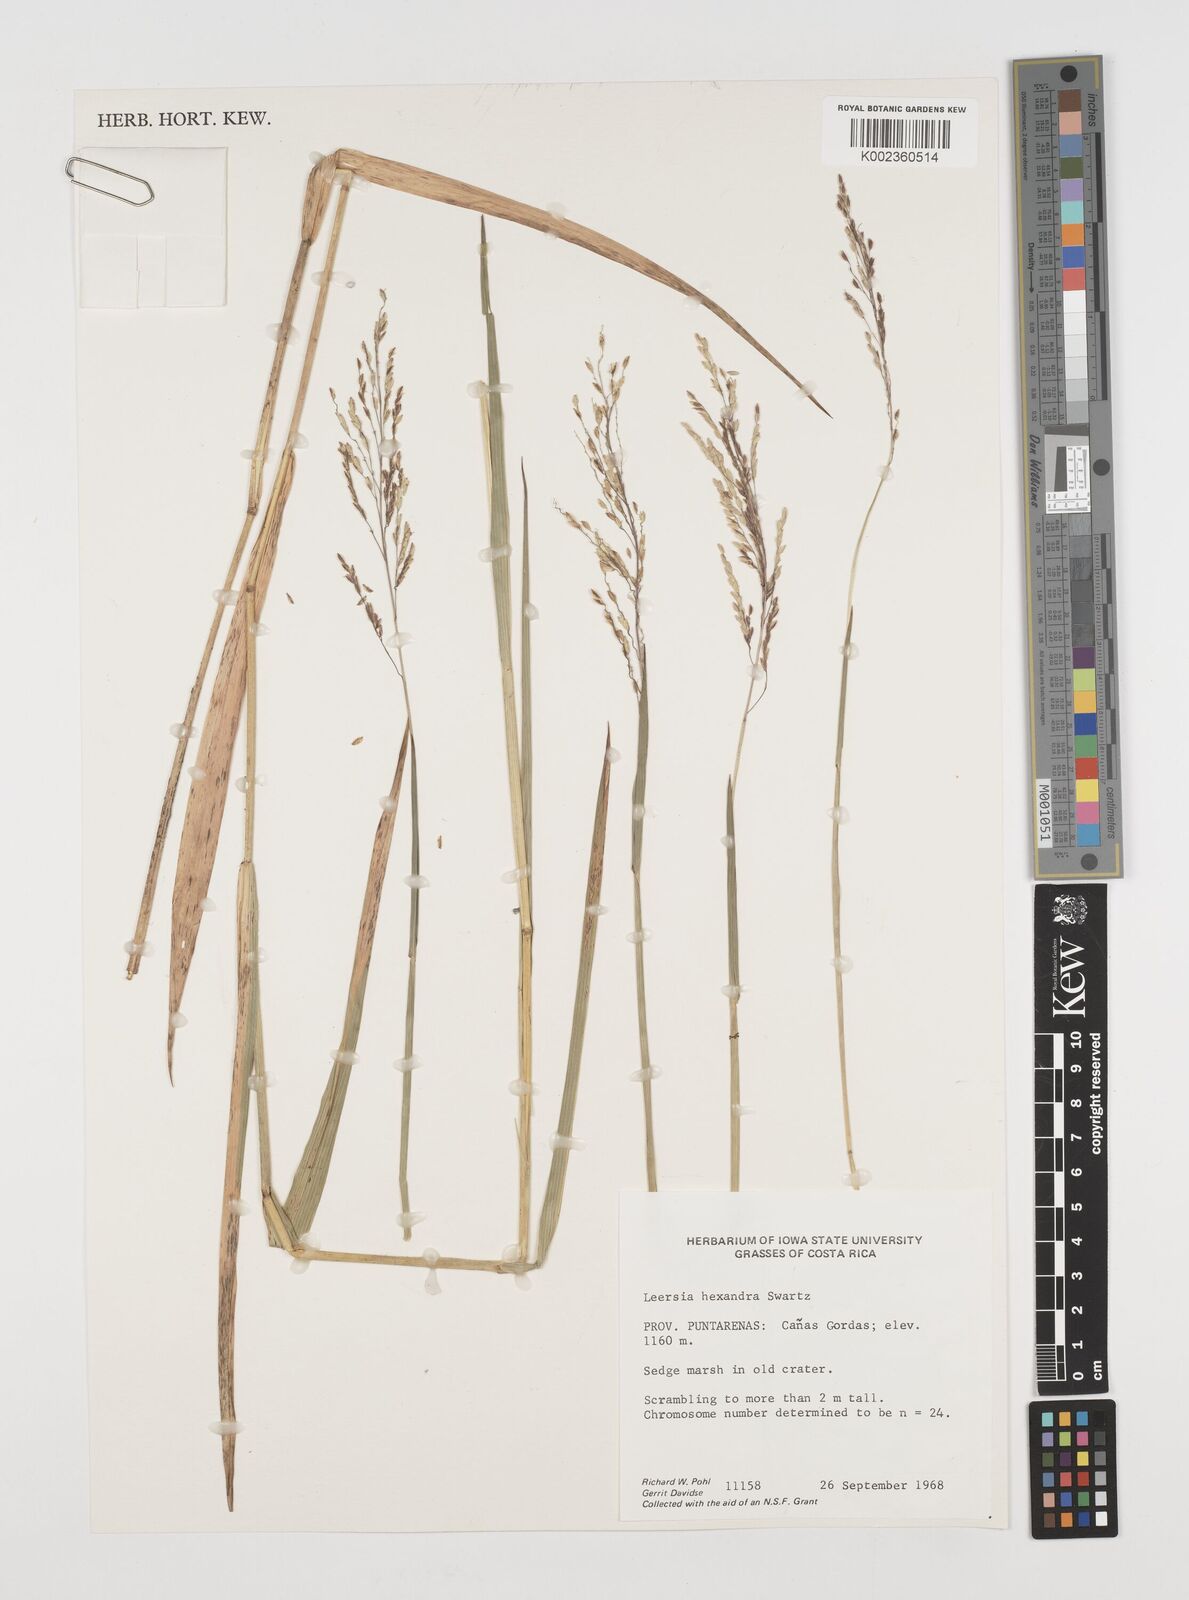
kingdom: Plantae
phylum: Tracheophyta
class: Liliopsida
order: Poales
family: Poaceae
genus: Leersia
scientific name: Leersia hexandra
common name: Southern cut grass
